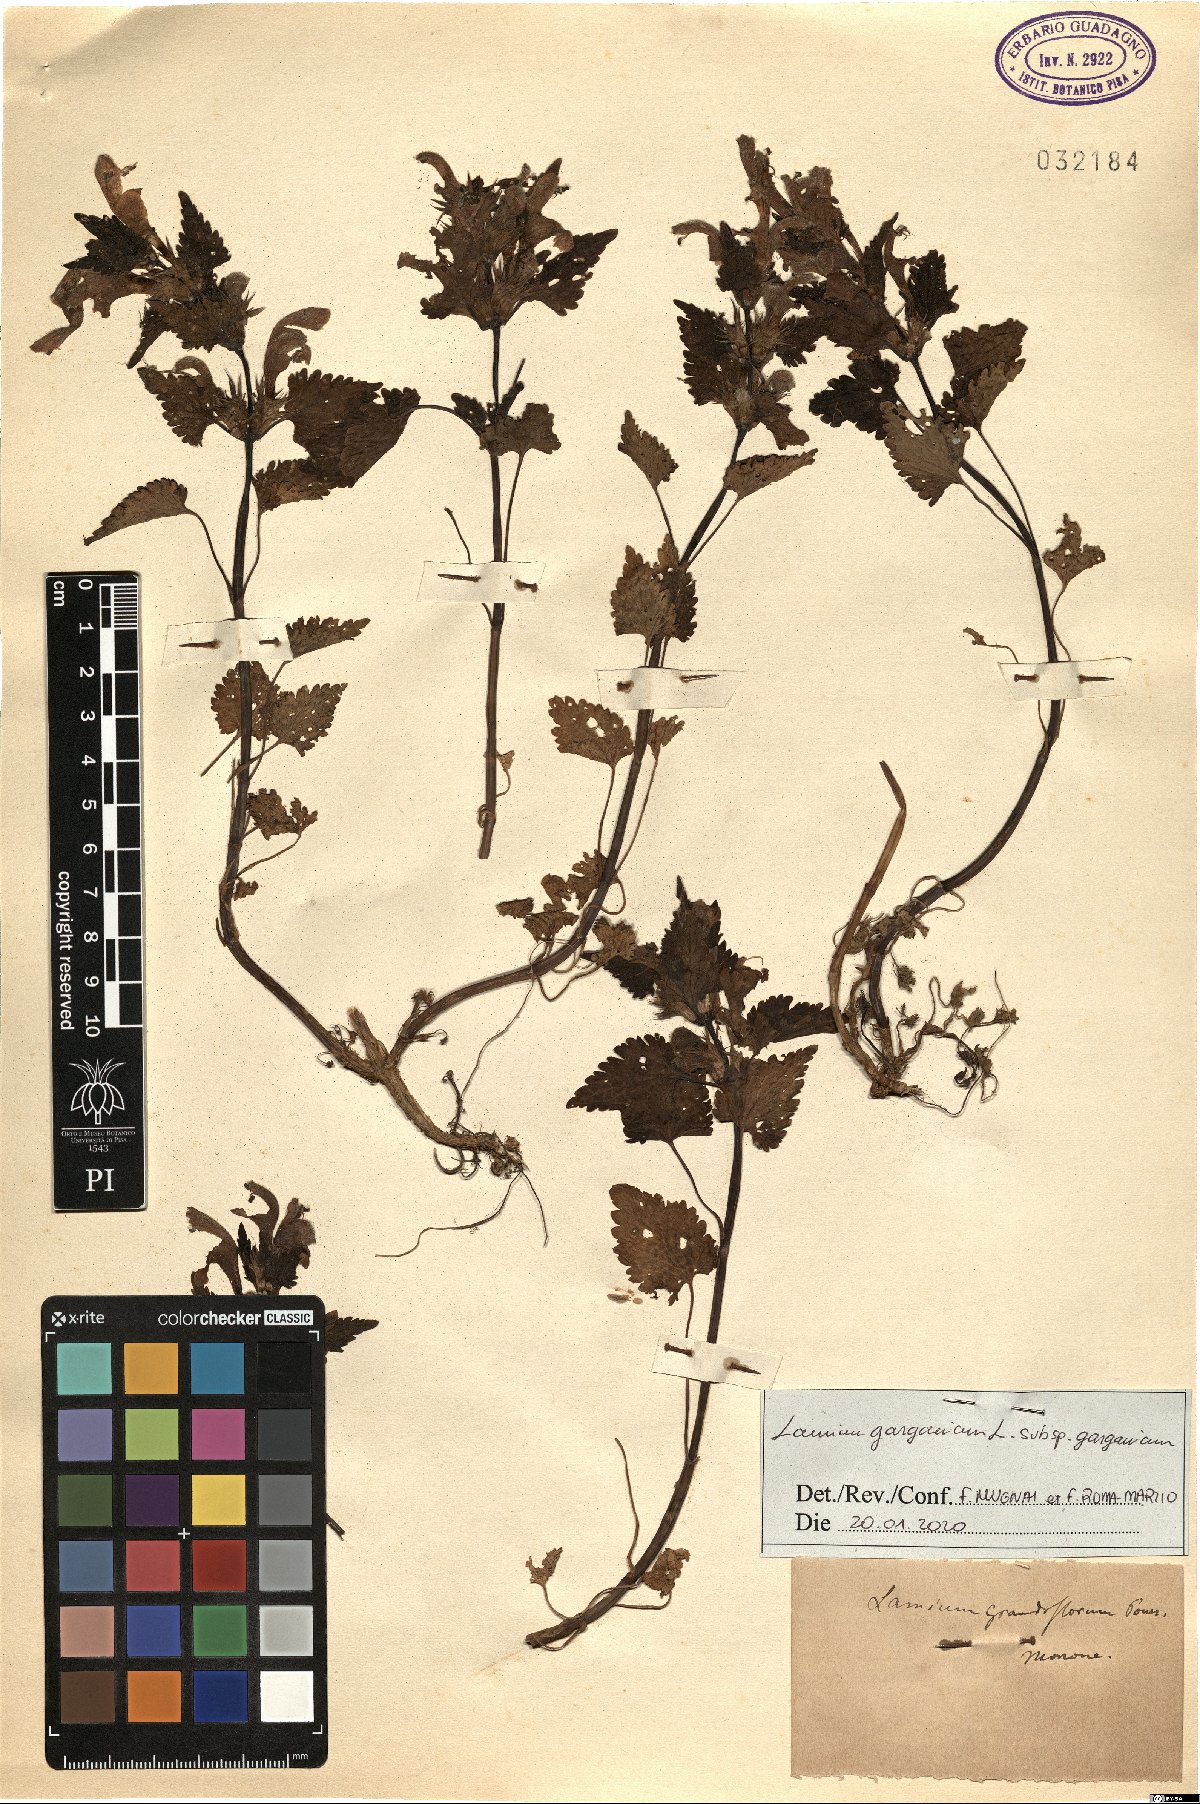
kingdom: Plantae
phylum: Tracheophyta
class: Magnoliopsida
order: Lamiales
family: Lamiaceae
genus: Lamium
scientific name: Lamium garganicum
